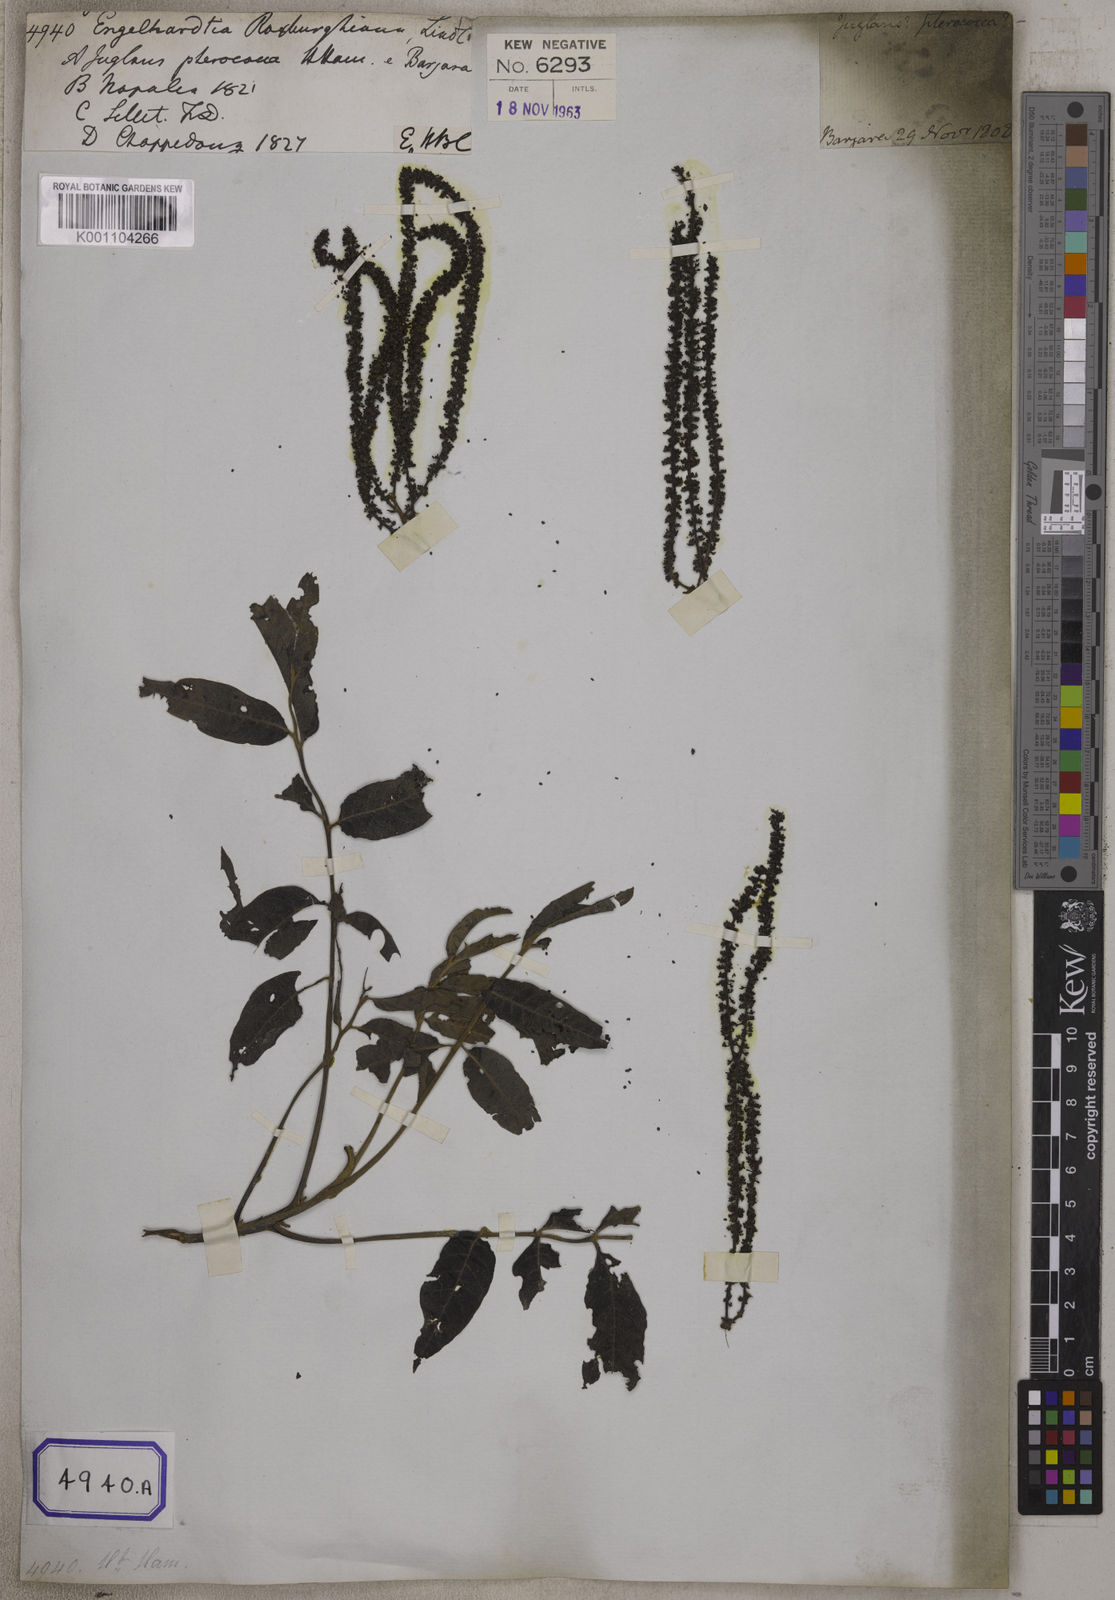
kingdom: Plantae
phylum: Tracheophyta
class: Magnoliopsida
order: Fagales
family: Juglandaceae
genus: Engelhardia
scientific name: Engelhardia spicata
